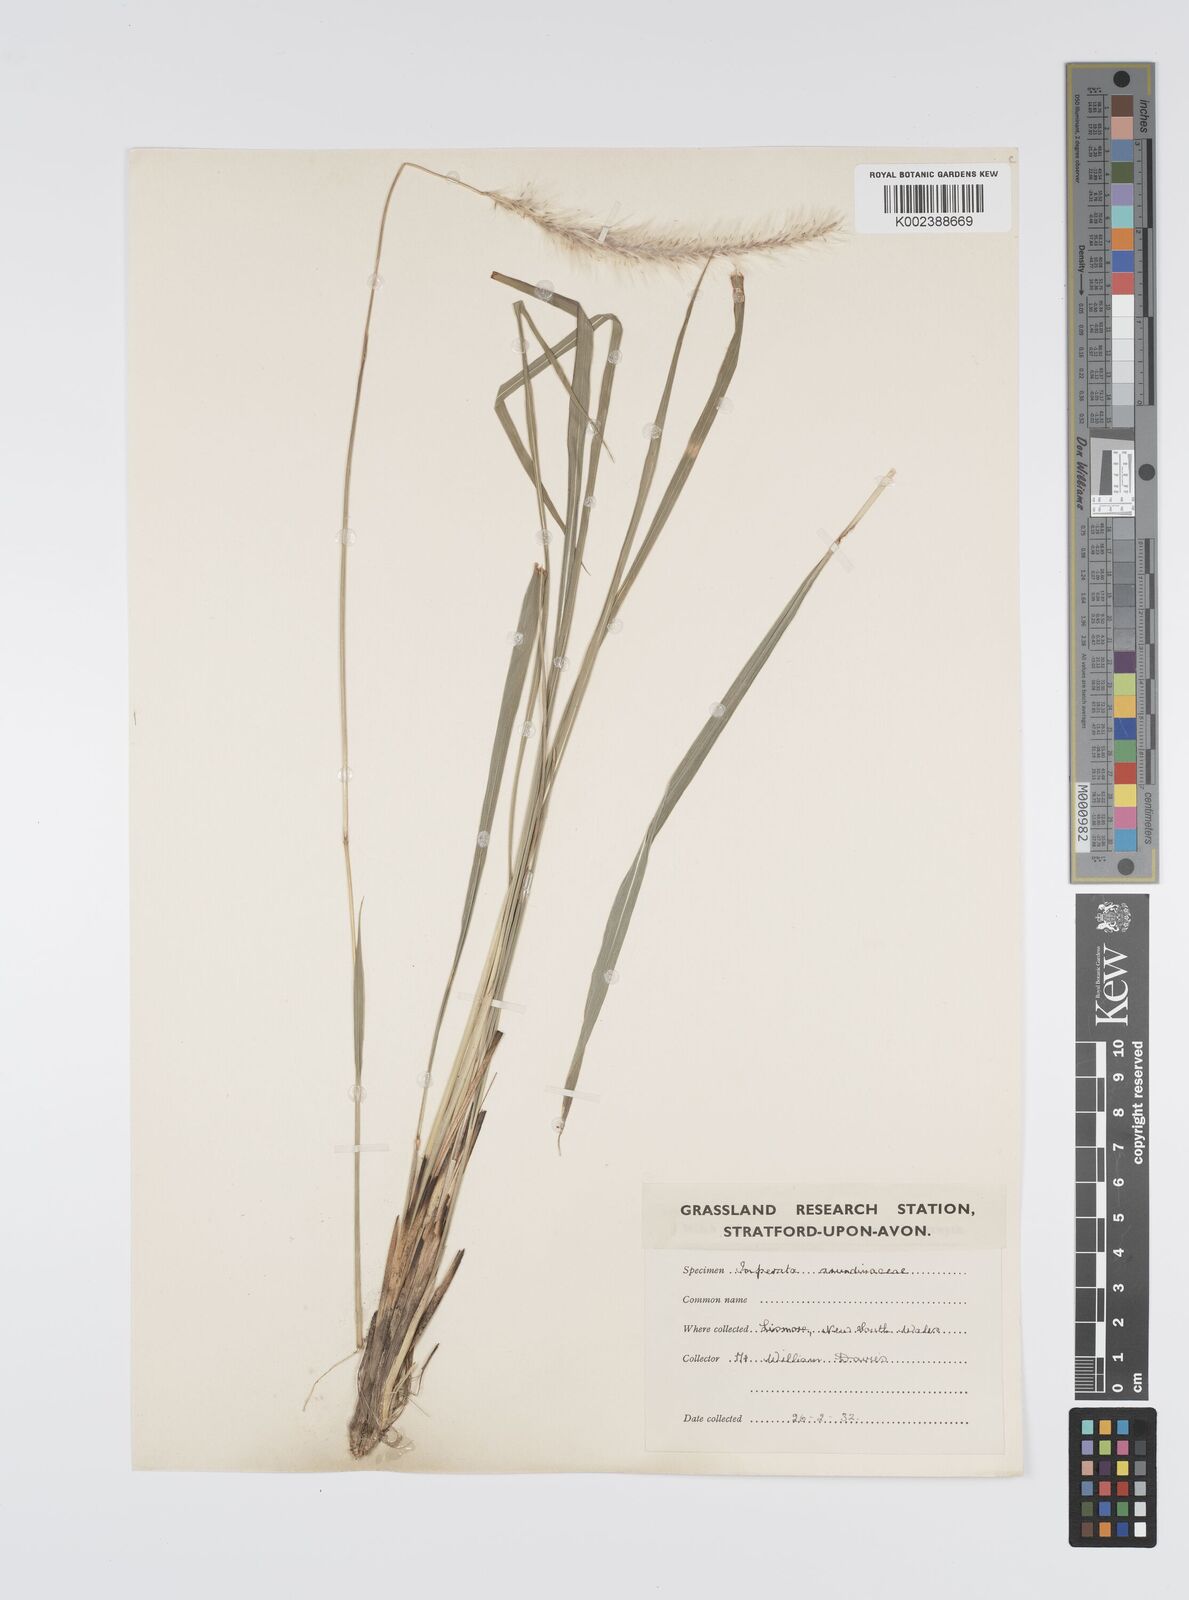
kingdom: Plantae
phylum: Tracheophyta
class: Liliopsida
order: Poales
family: Poaceae
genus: Imperata
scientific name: Imperata cylindrica
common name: Cogongrass
